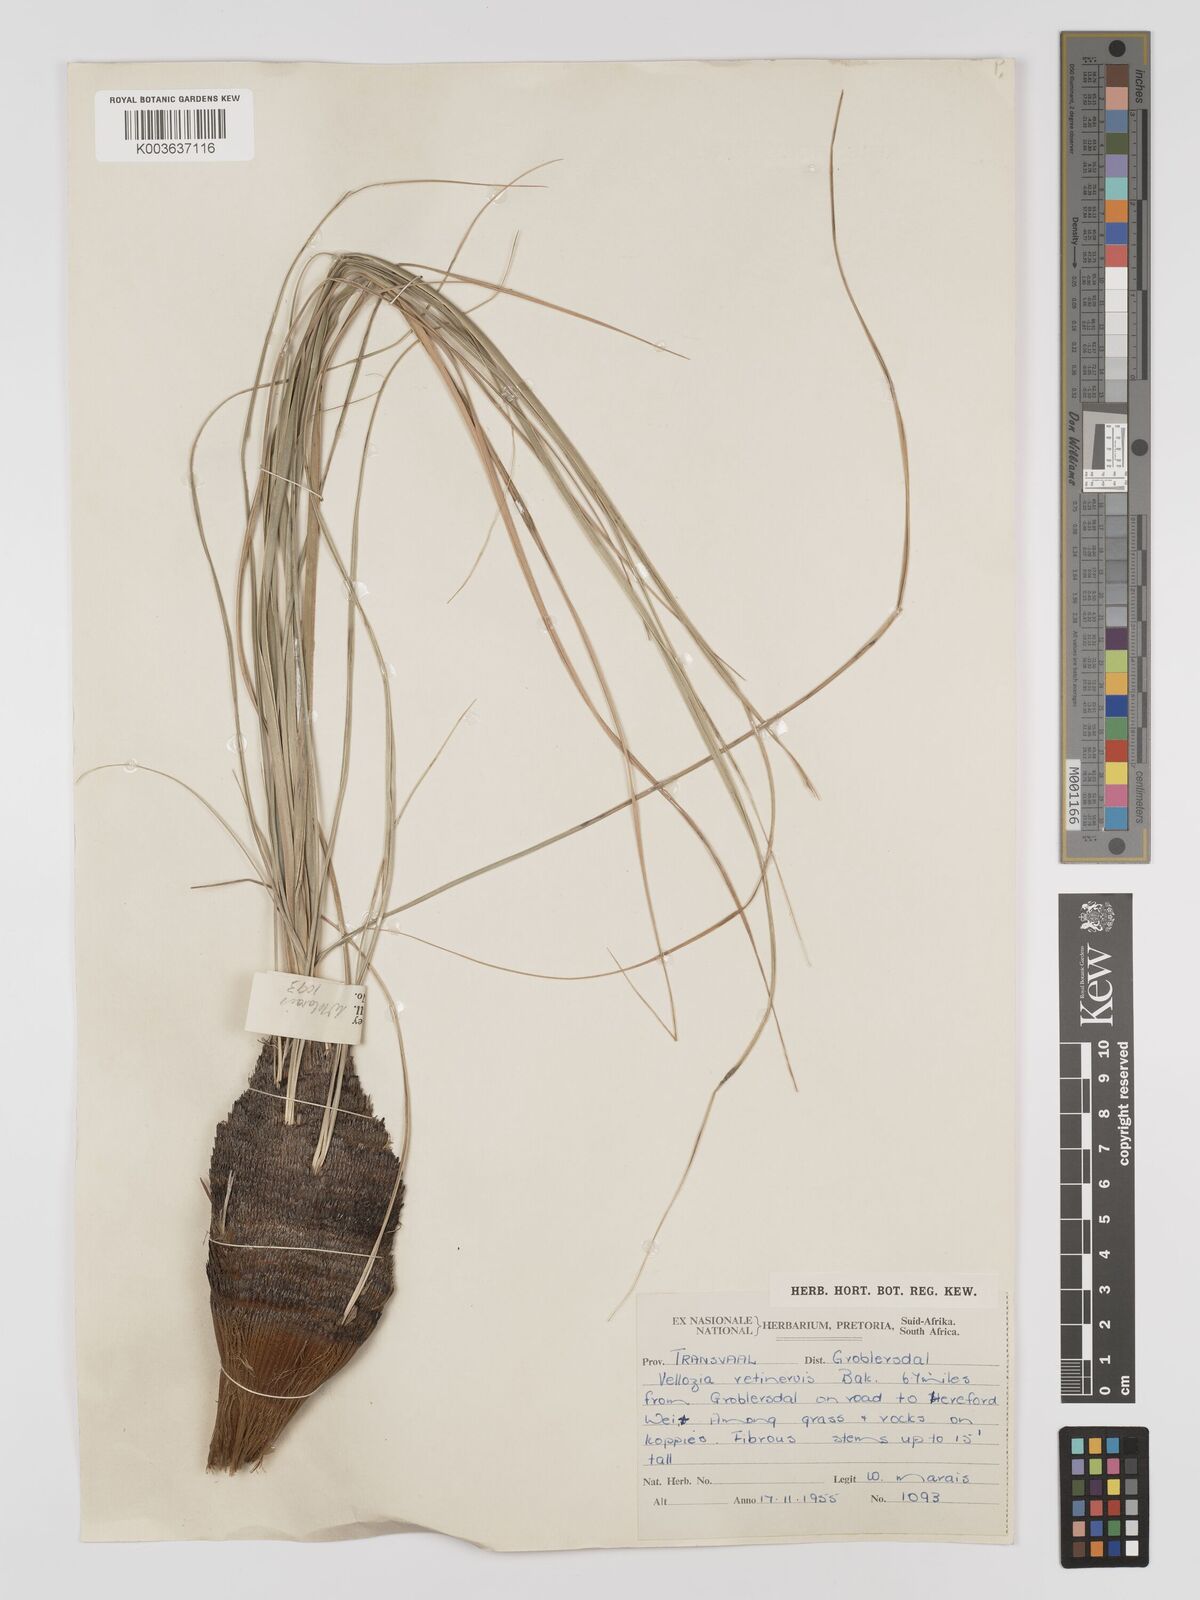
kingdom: Plantae
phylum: Tracheophyta
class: Liliopsida
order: Pandanales
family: Velloziaceae
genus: Xerophyta
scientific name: Xerophyta retinervis
